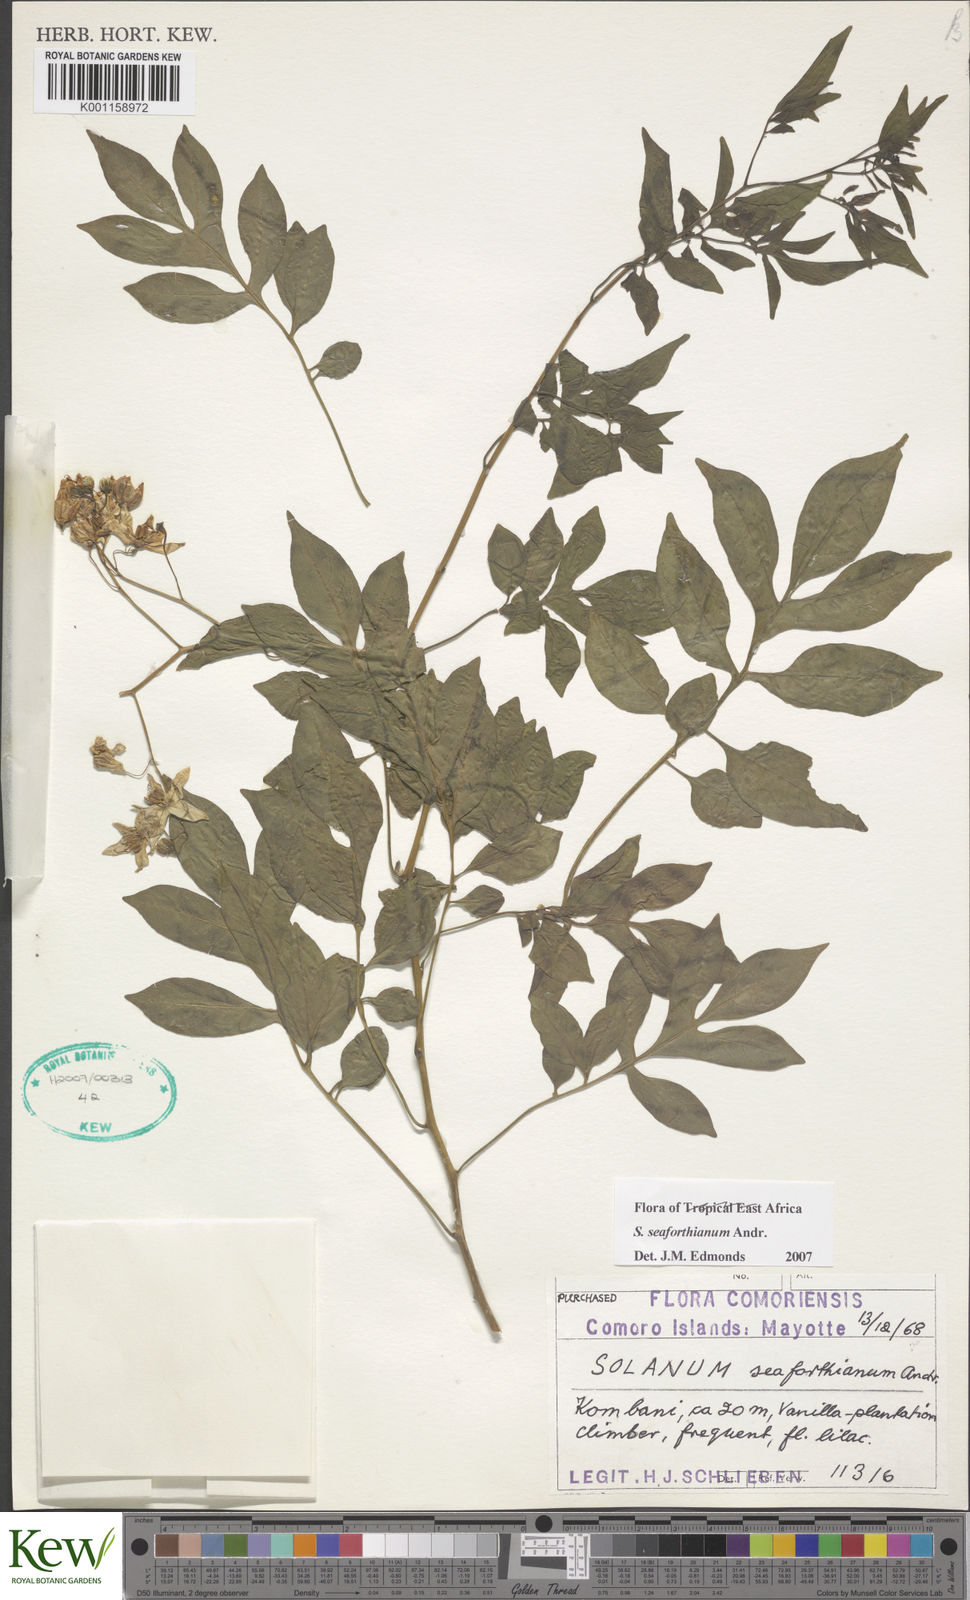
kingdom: Plantae
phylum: Tracheophyta
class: Magnoliopsida
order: Solanales
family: Solanaceae
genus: Solanum
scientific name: Solanum seaforthianum
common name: Brazilian nightshade
